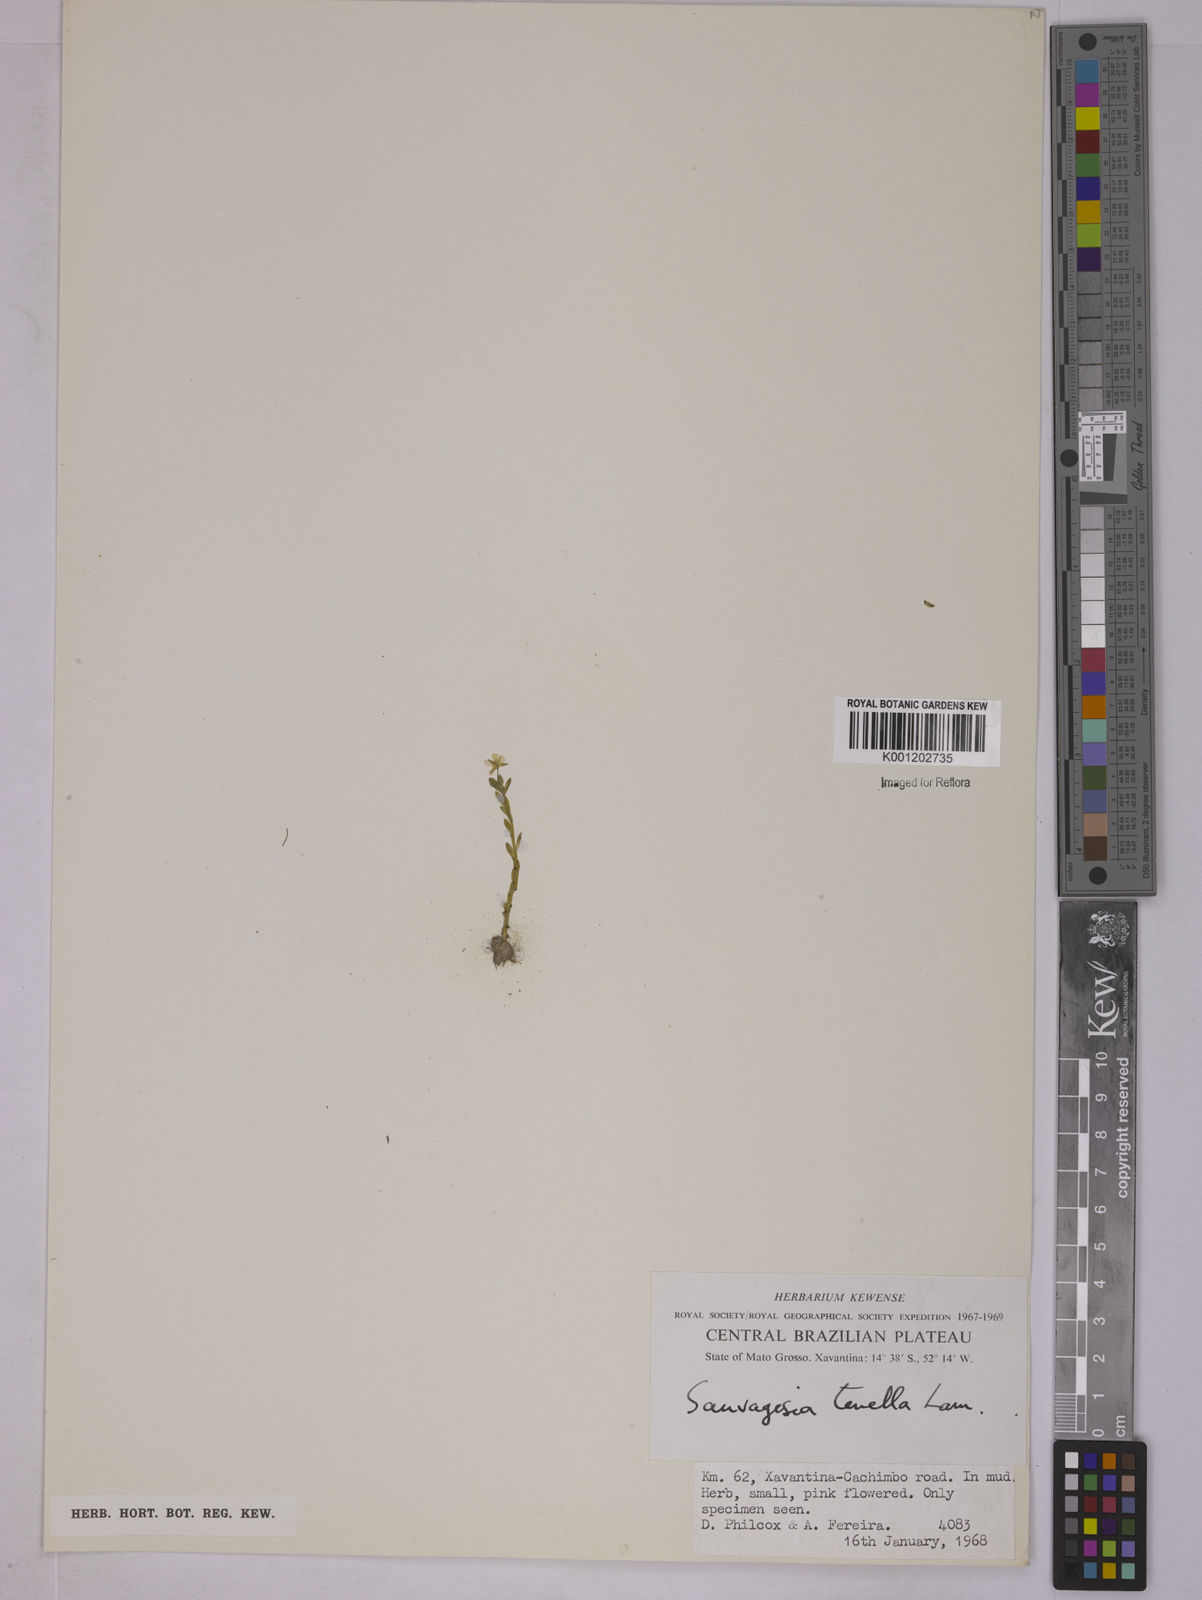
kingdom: Plantae
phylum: Tracheophyta
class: Magnoliopsida
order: Malpighiales
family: Ochnaceae
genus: Sauvagesia
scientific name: Sauvagesia tenella
